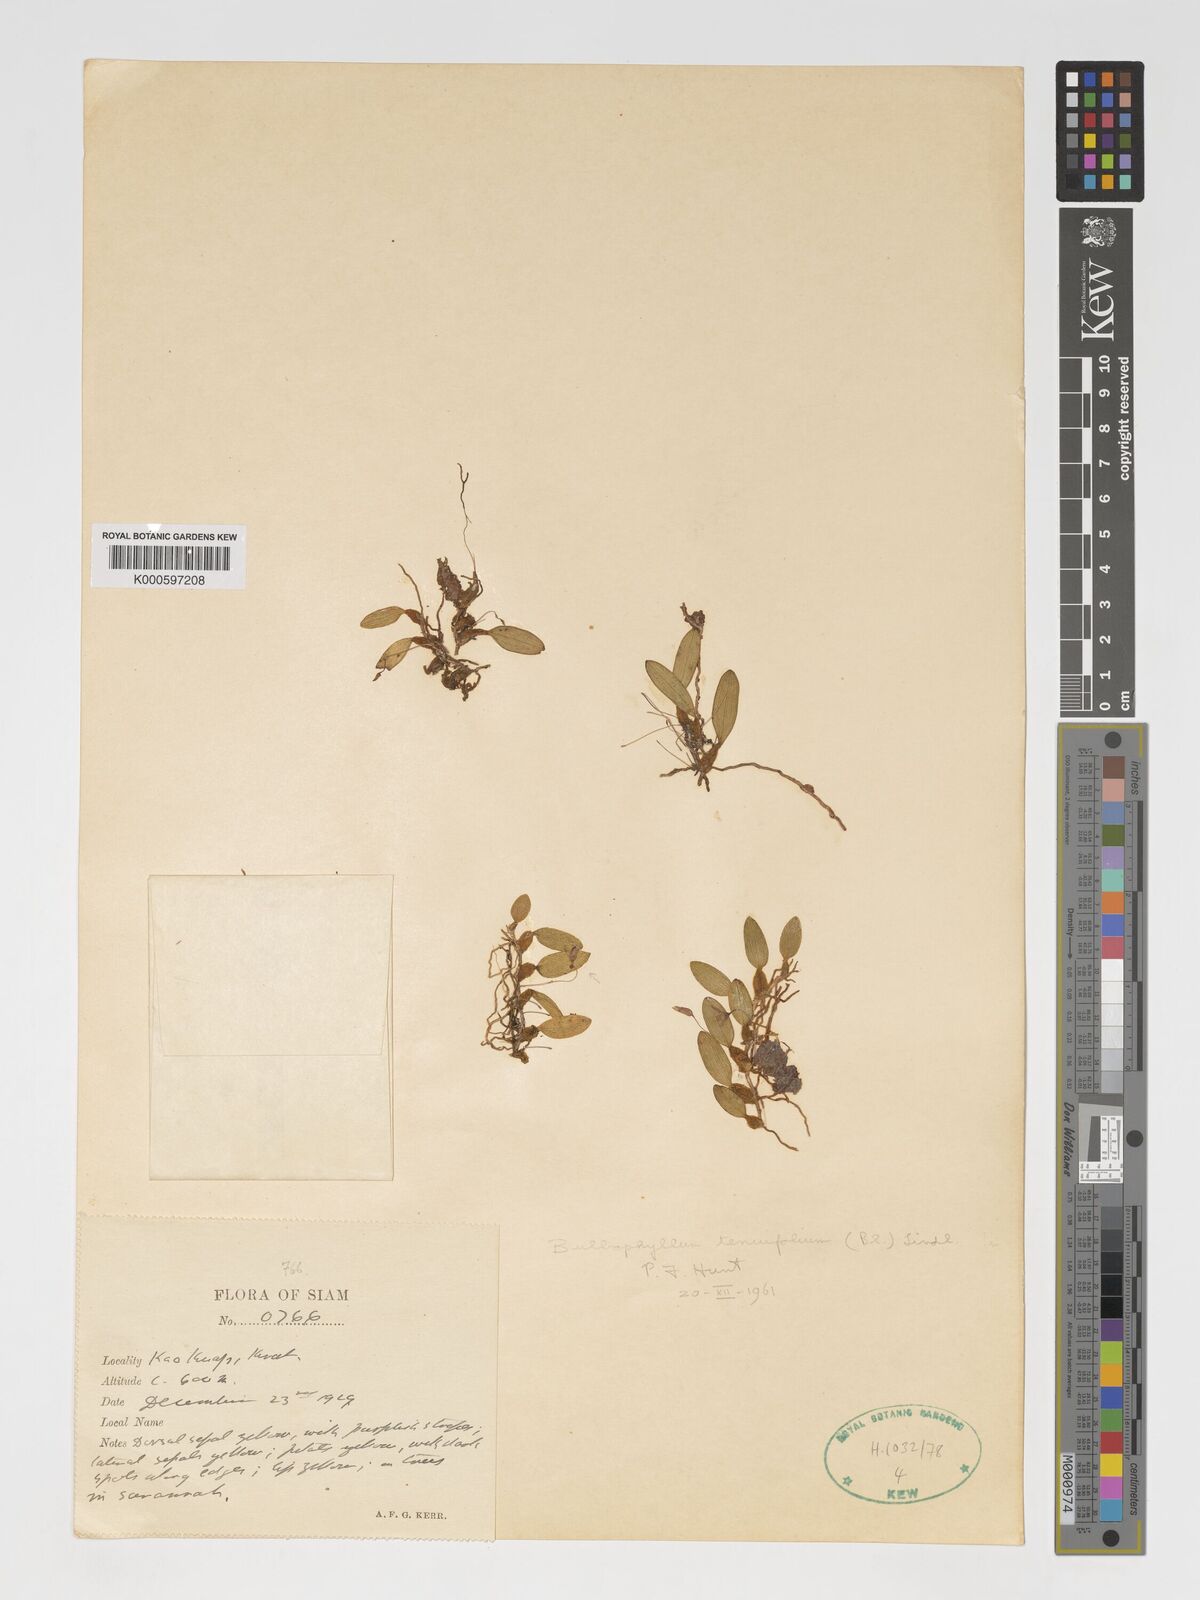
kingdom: Plantae
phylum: Tracheophyta
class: Liliopsida
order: Asparagales
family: Orchidaceae
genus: Bulbophyllum
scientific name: Bulbophyllum tenuifolium
